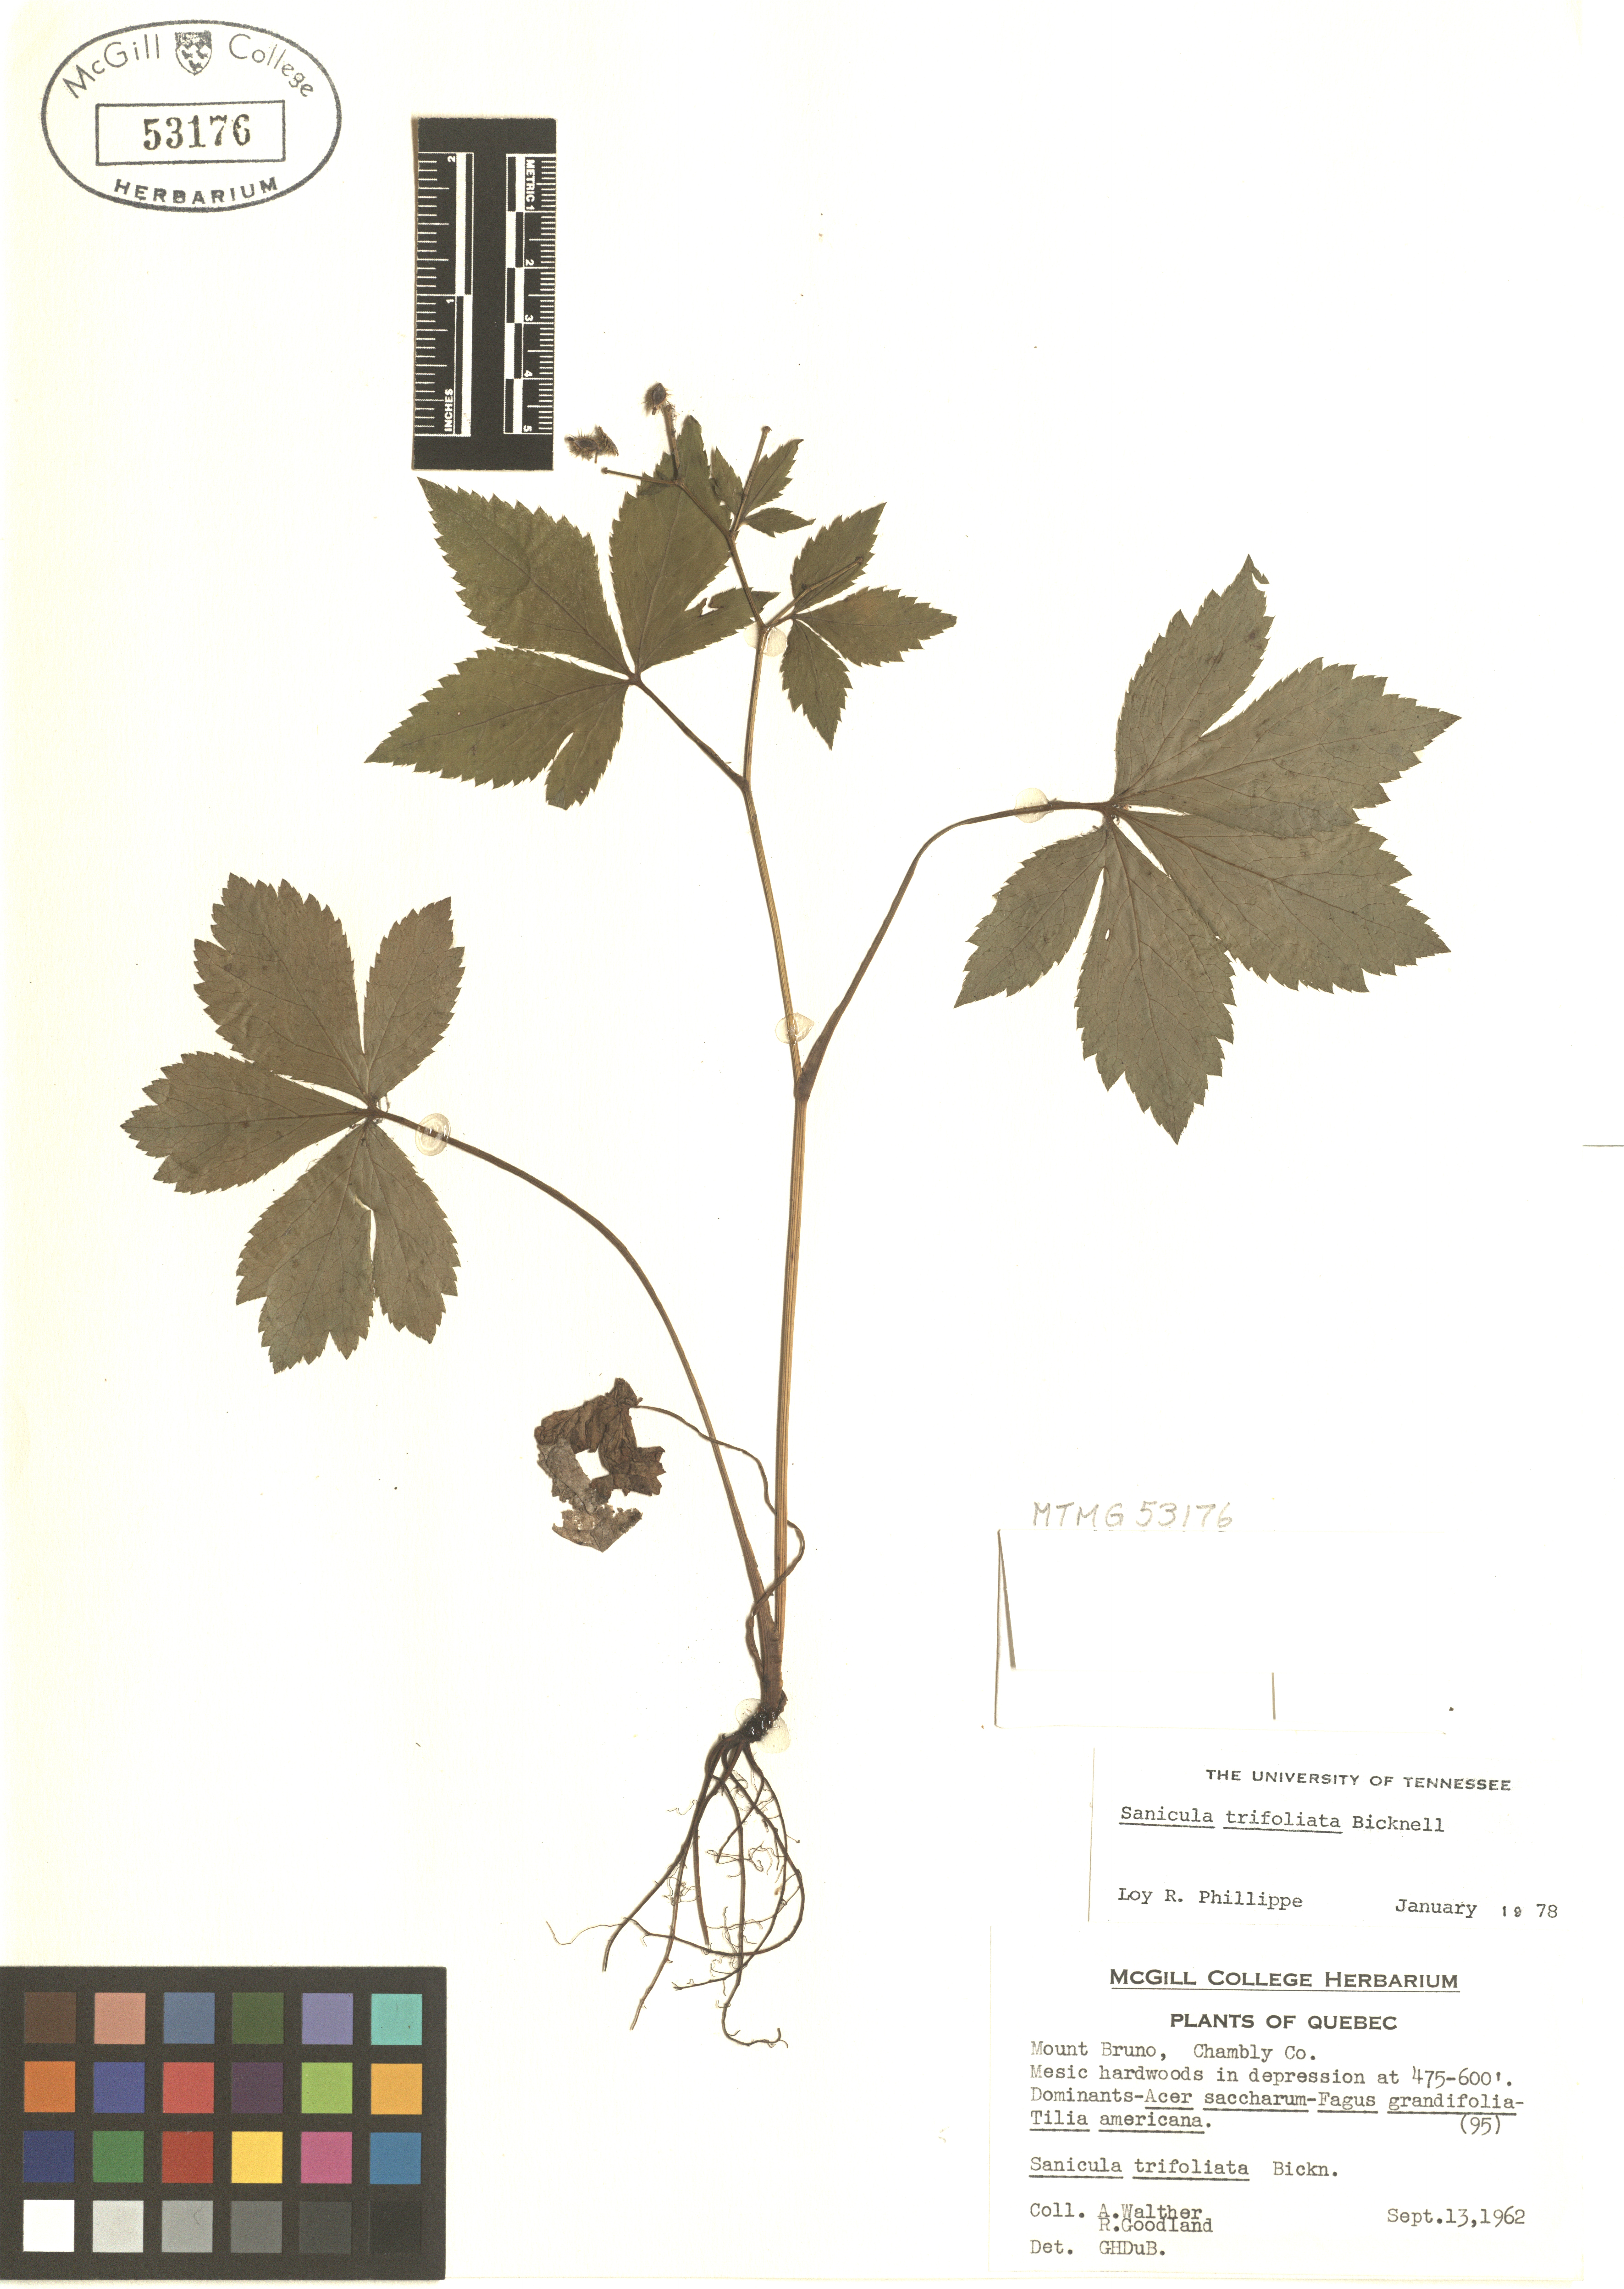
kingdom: Plantae
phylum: Tracheophyta
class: Magnoliopsida
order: Apiales
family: Apiaceae
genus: Sanicula
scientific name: Sanicula trifoliata
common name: Beaked sanicle
